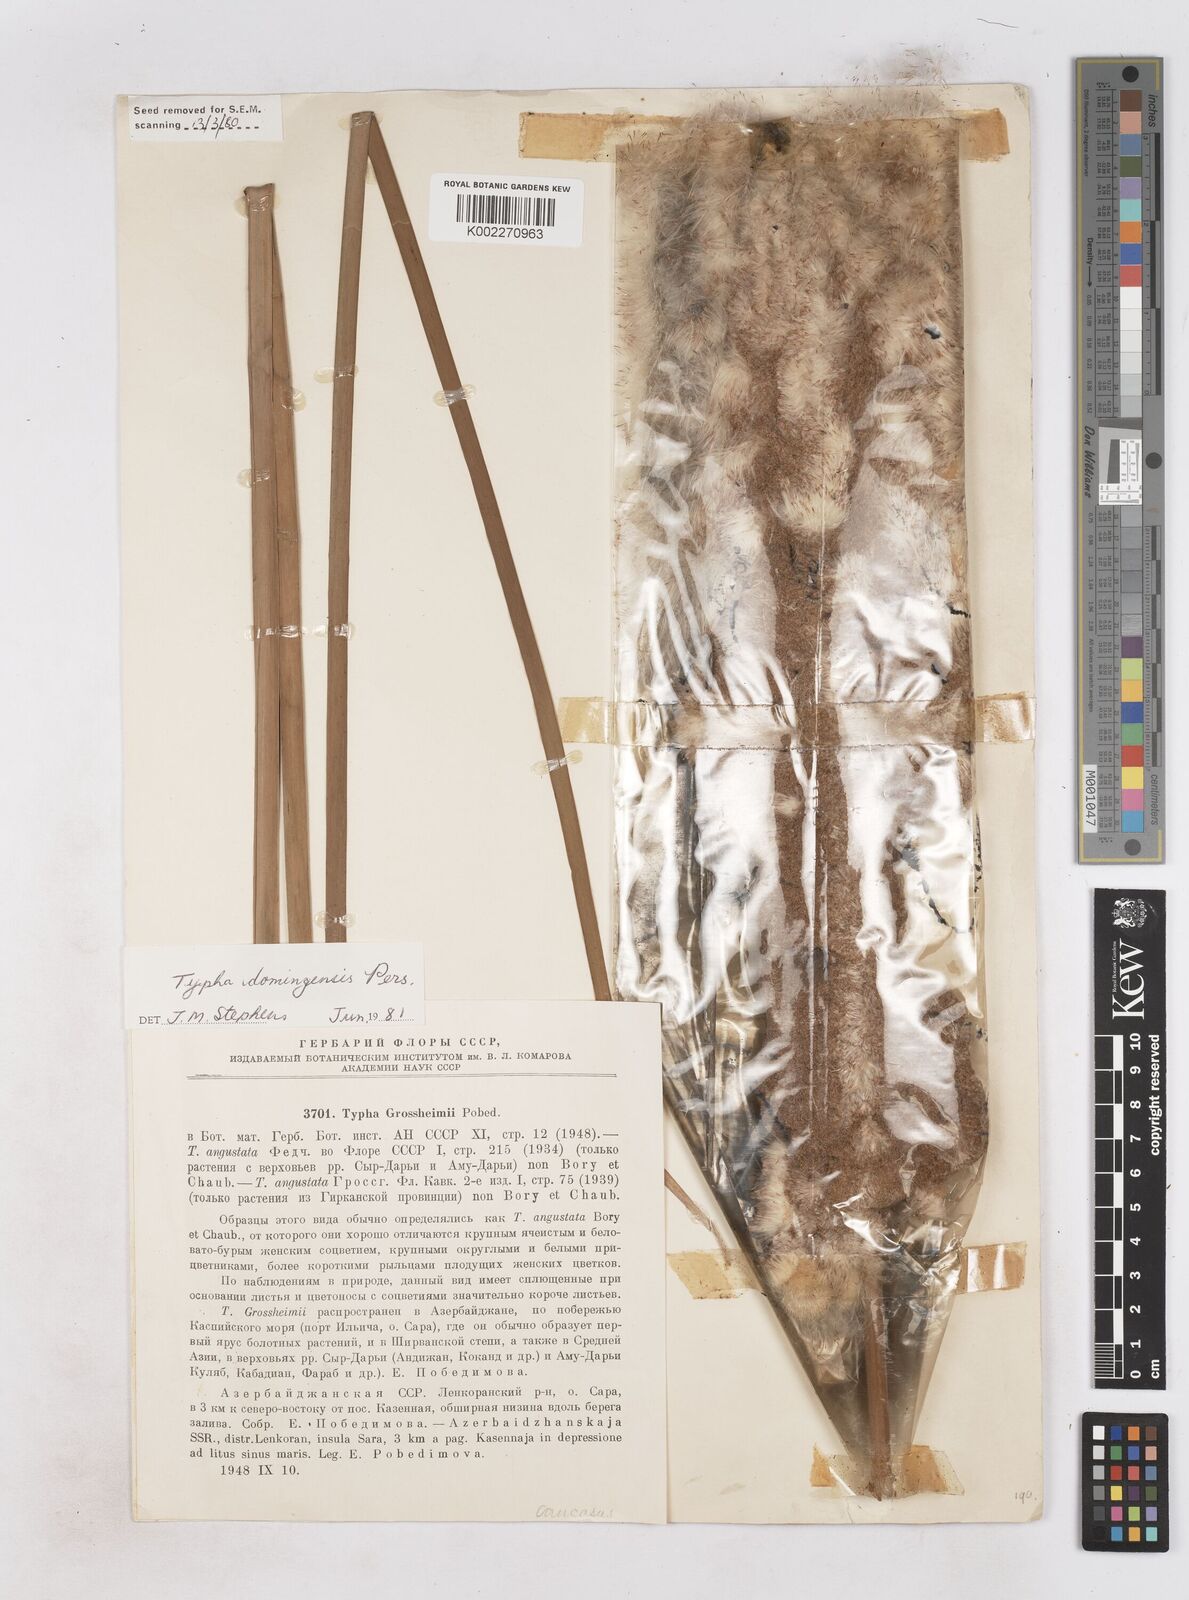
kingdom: Plantae
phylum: Tracheophyta
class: Liliopsida
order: Poales
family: Typhaceae
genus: Typha
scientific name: Typha domingensis
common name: Southern cattail
